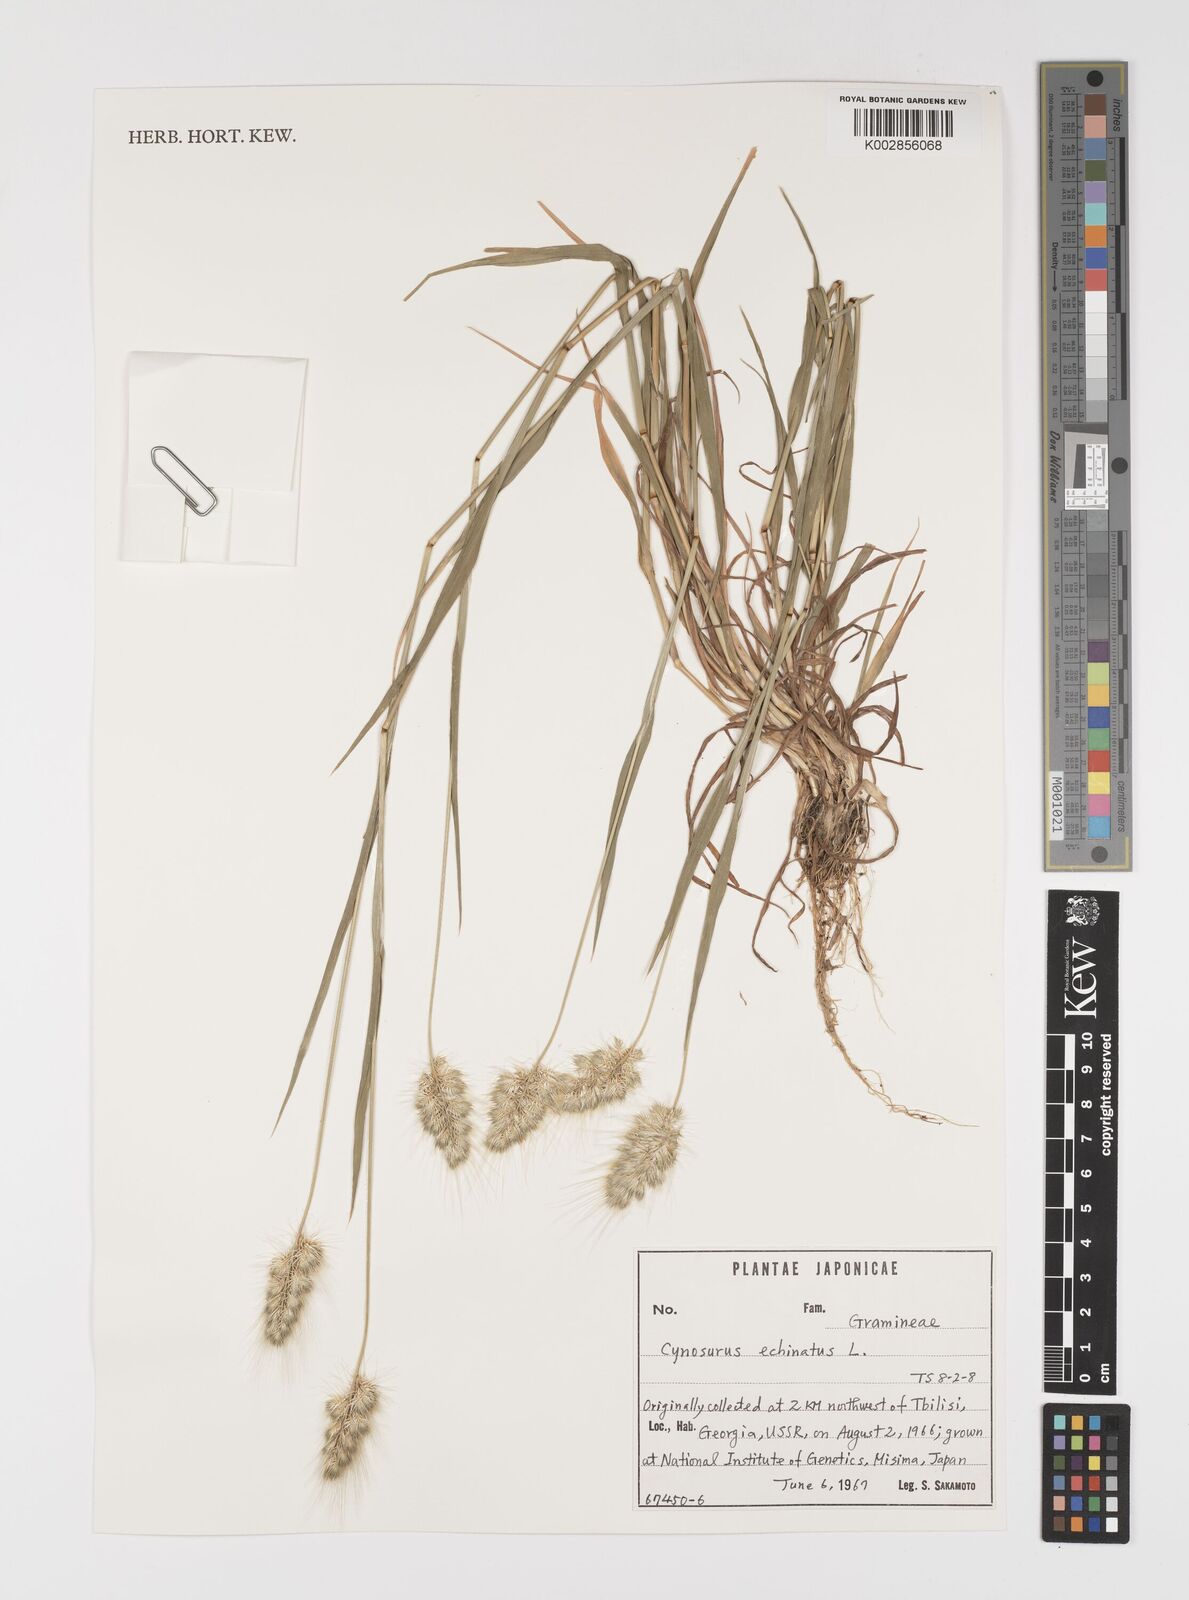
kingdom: Plantae
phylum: Tracheophyta
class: Liliopsida
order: Poales
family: Poaceae
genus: Cynosurus
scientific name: Cynosurus echinatus
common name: Rough dog's-tail
